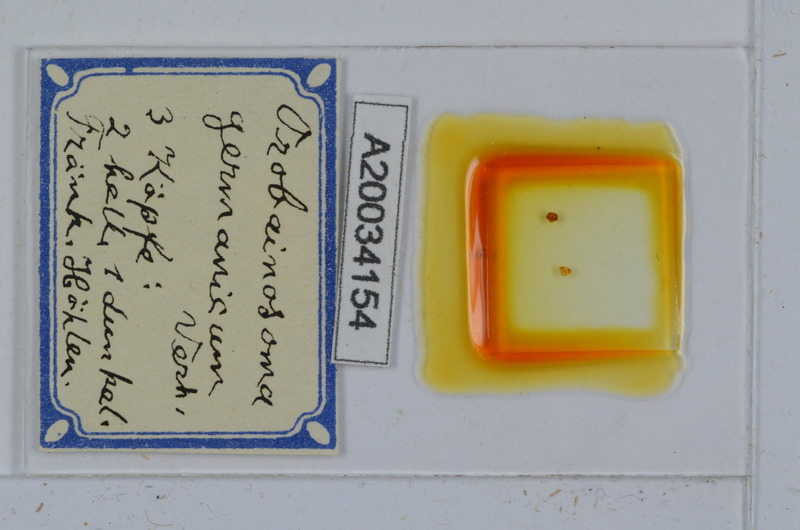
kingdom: Animalia
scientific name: Animalia
